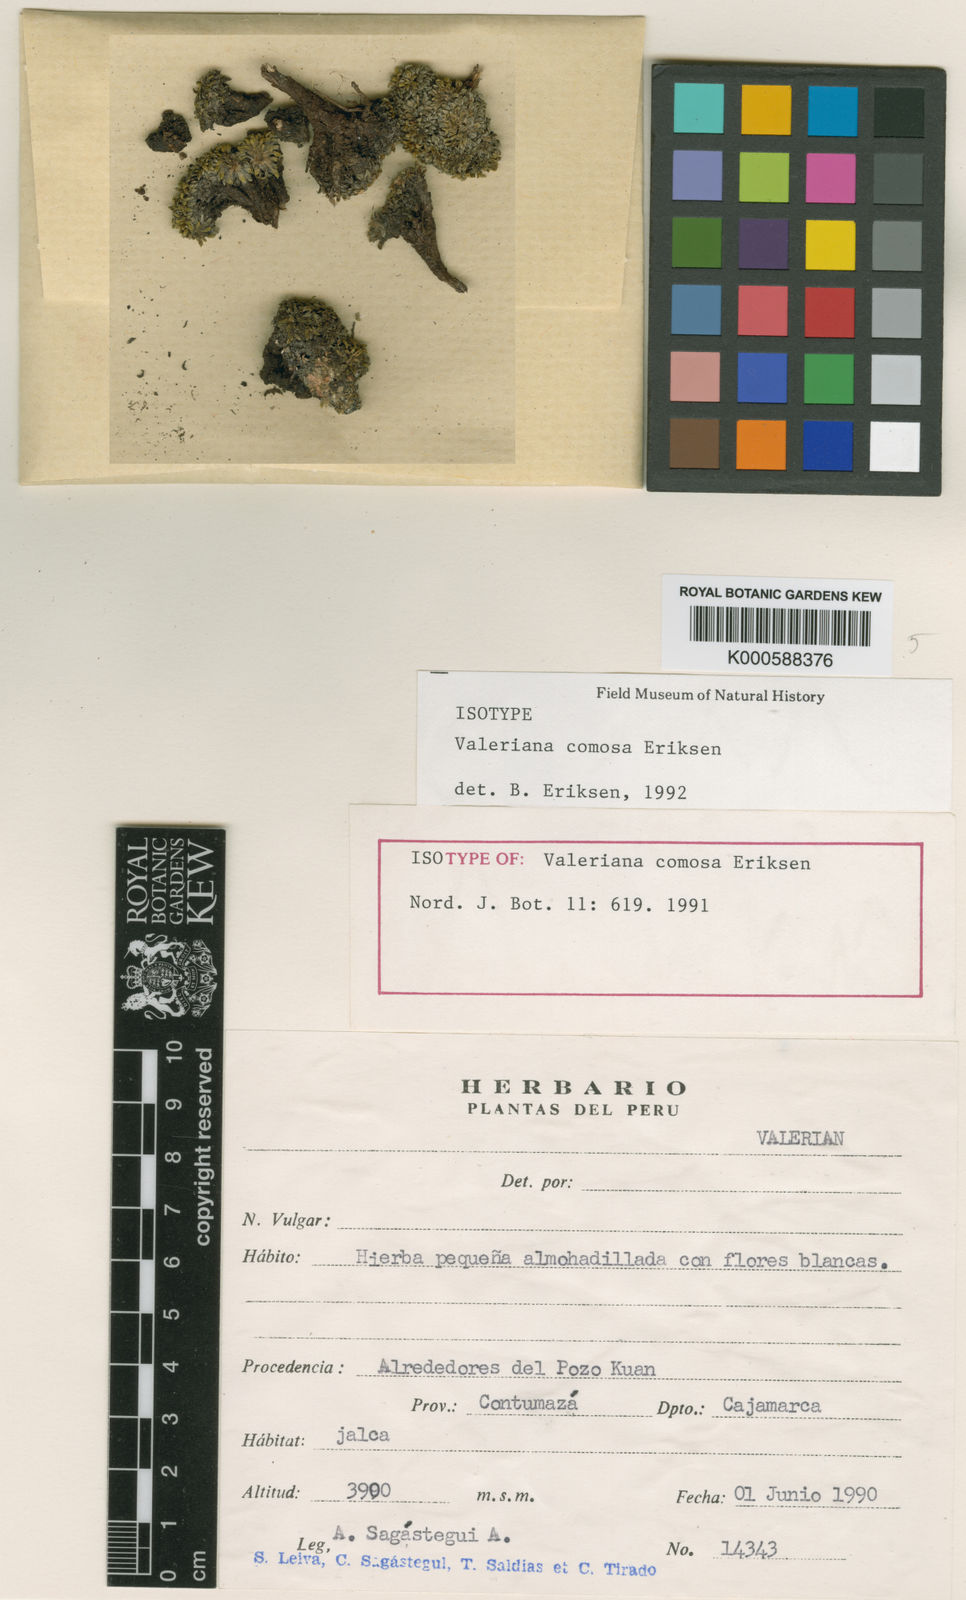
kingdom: Plantae
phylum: Tracheophyta
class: Magnoliopsida
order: Dipsacales
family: Caprifoliaceae
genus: Valeriana
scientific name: Valeriana comosa
